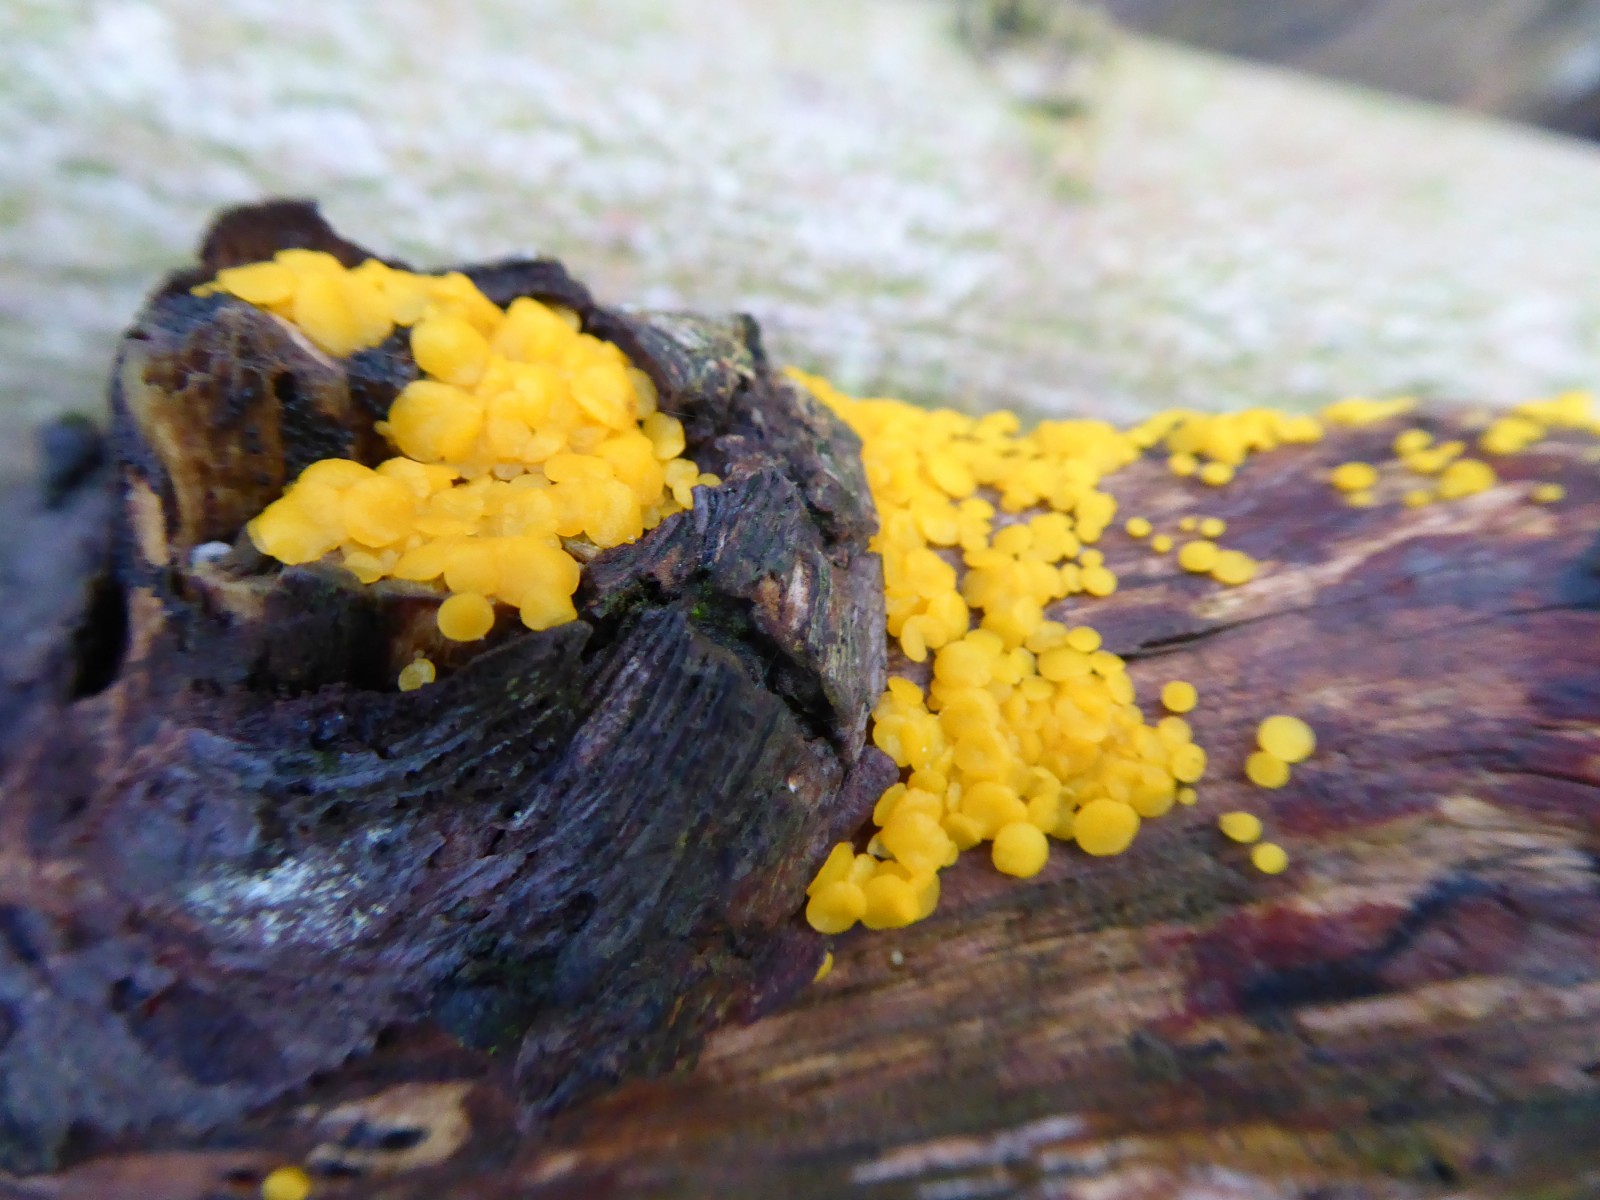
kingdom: Fungi
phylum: Ascomycota
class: Leotiomycetes
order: Helotiales
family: Pezizellaceae
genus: Calycina
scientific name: Calycina citrina
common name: almindelig gulskive
